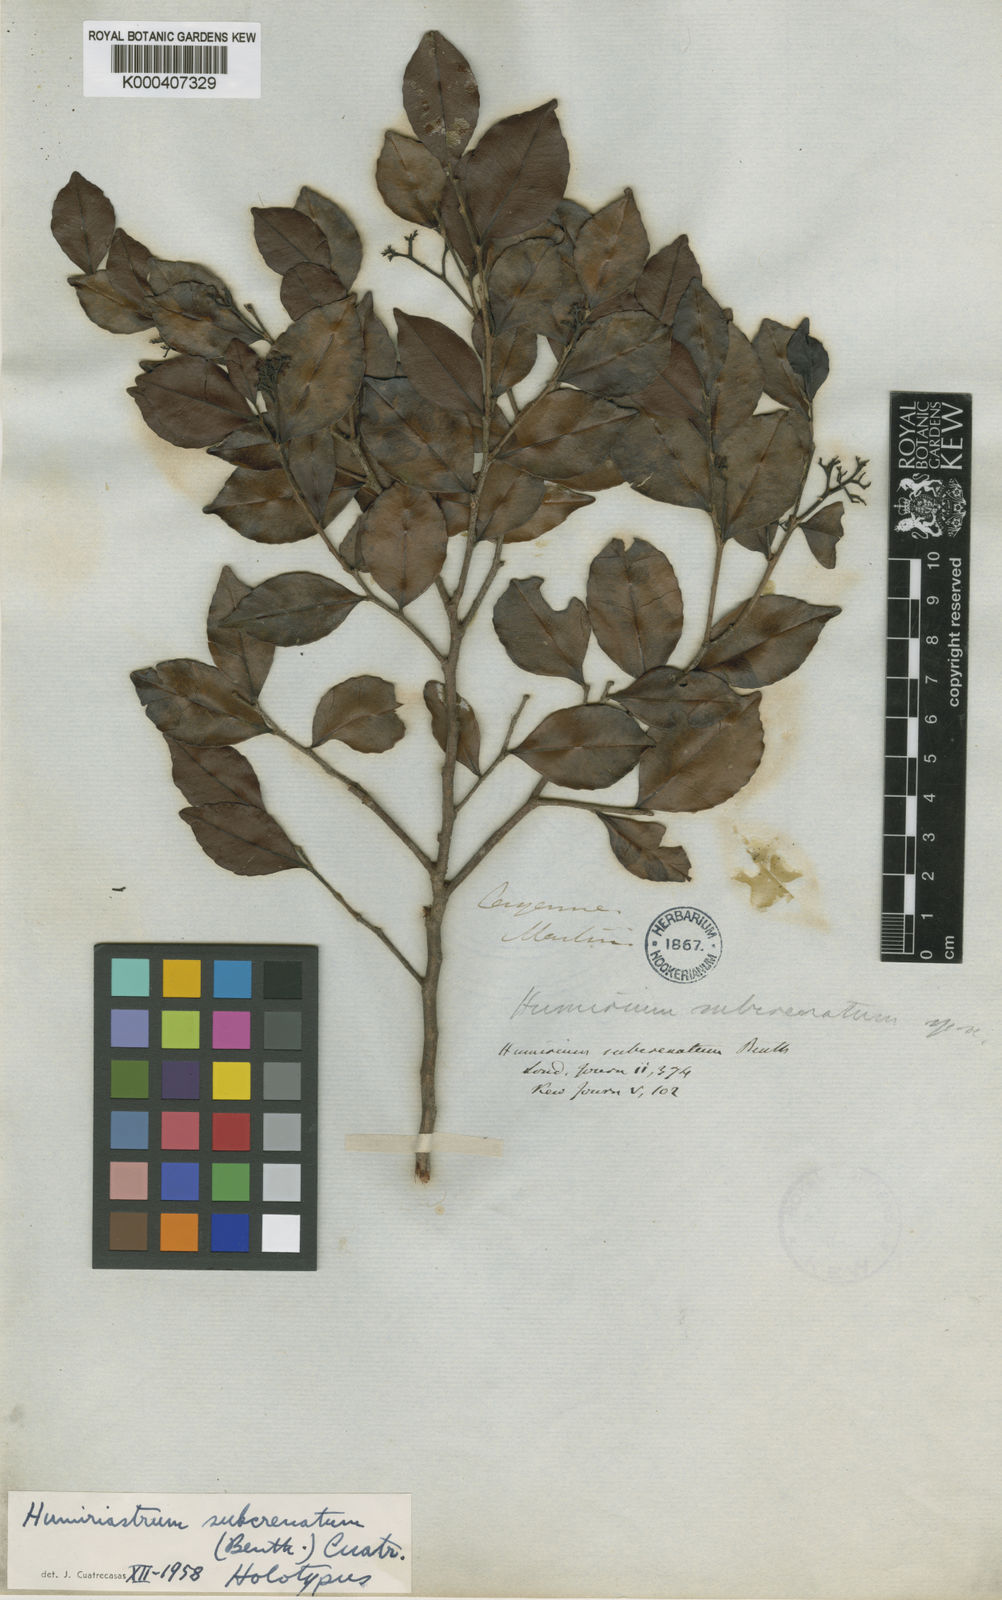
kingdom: Plantae
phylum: Tracheophyta
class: Magnoliopsida
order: Malpighiales
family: Humiriaceae
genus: Humiriastrum
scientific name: Humiriastrum subcrenatum
